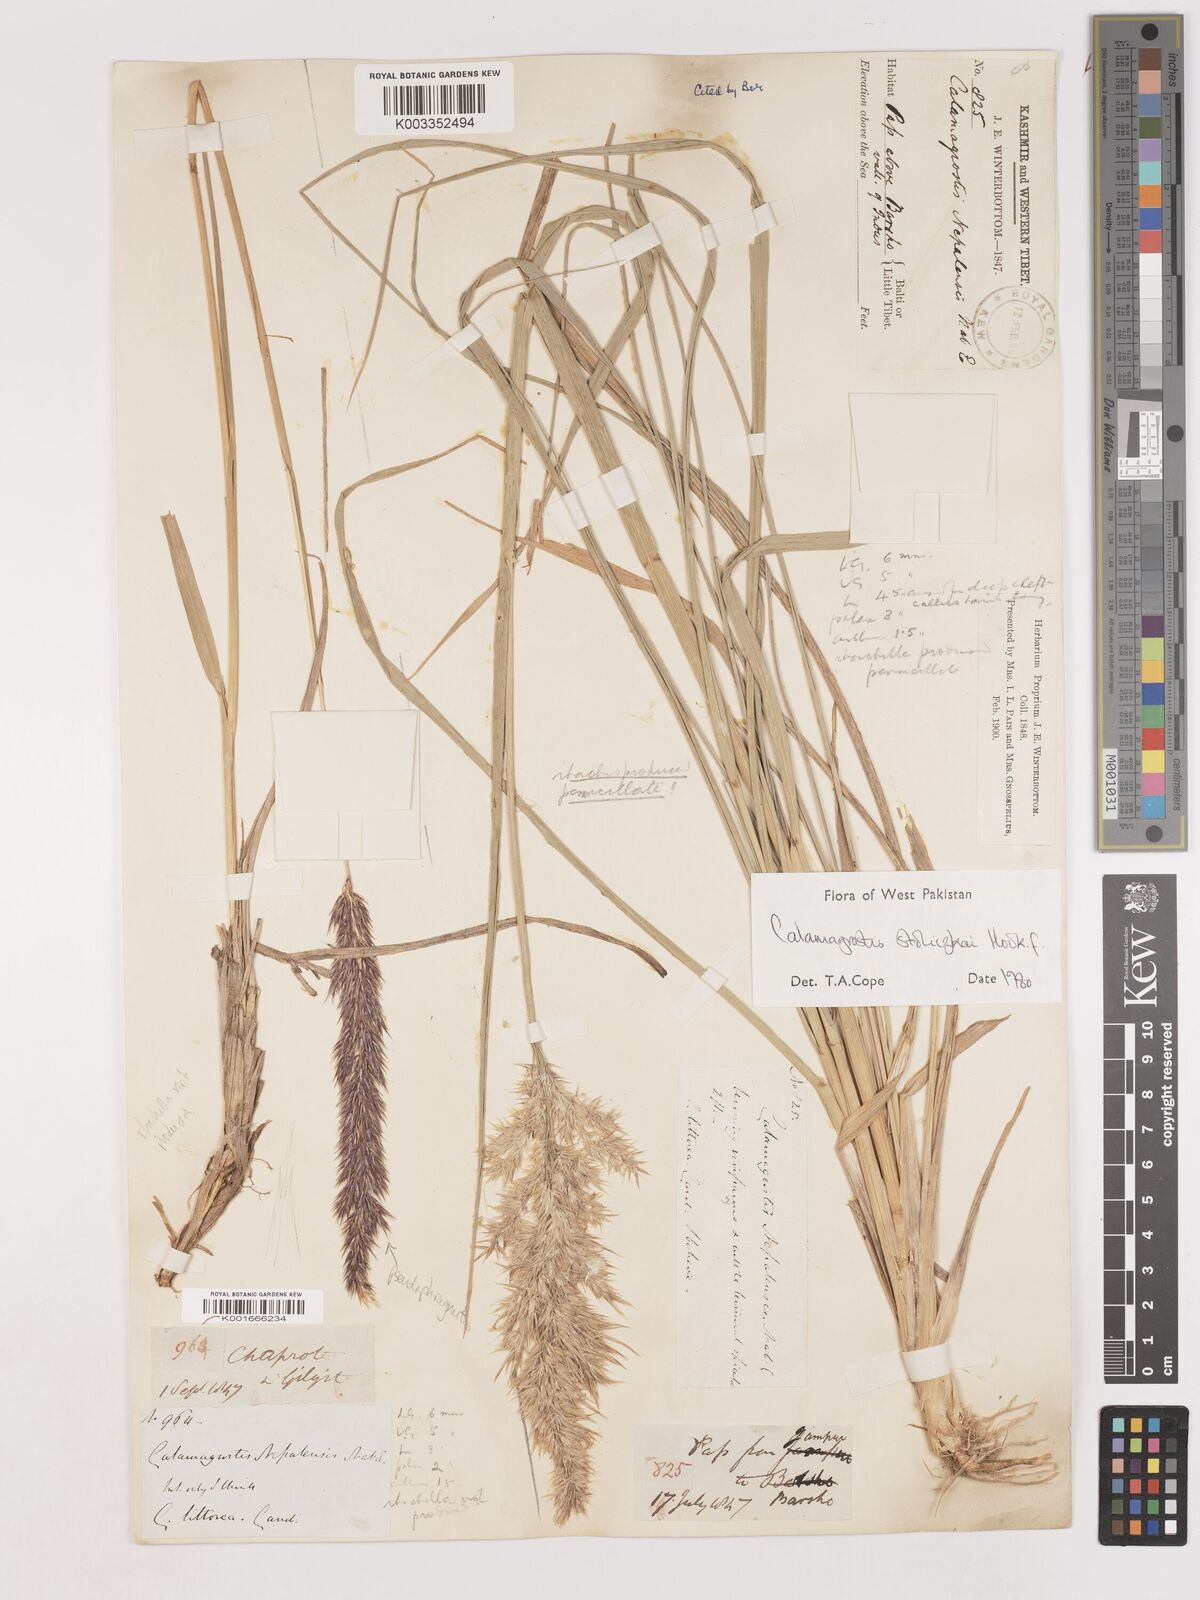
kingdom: Plantae
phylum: Tracheophyta
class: Liliopsida
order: Poales
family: Poaceae
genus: Calamagrostis
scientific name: Calamagrostis stolizkae
